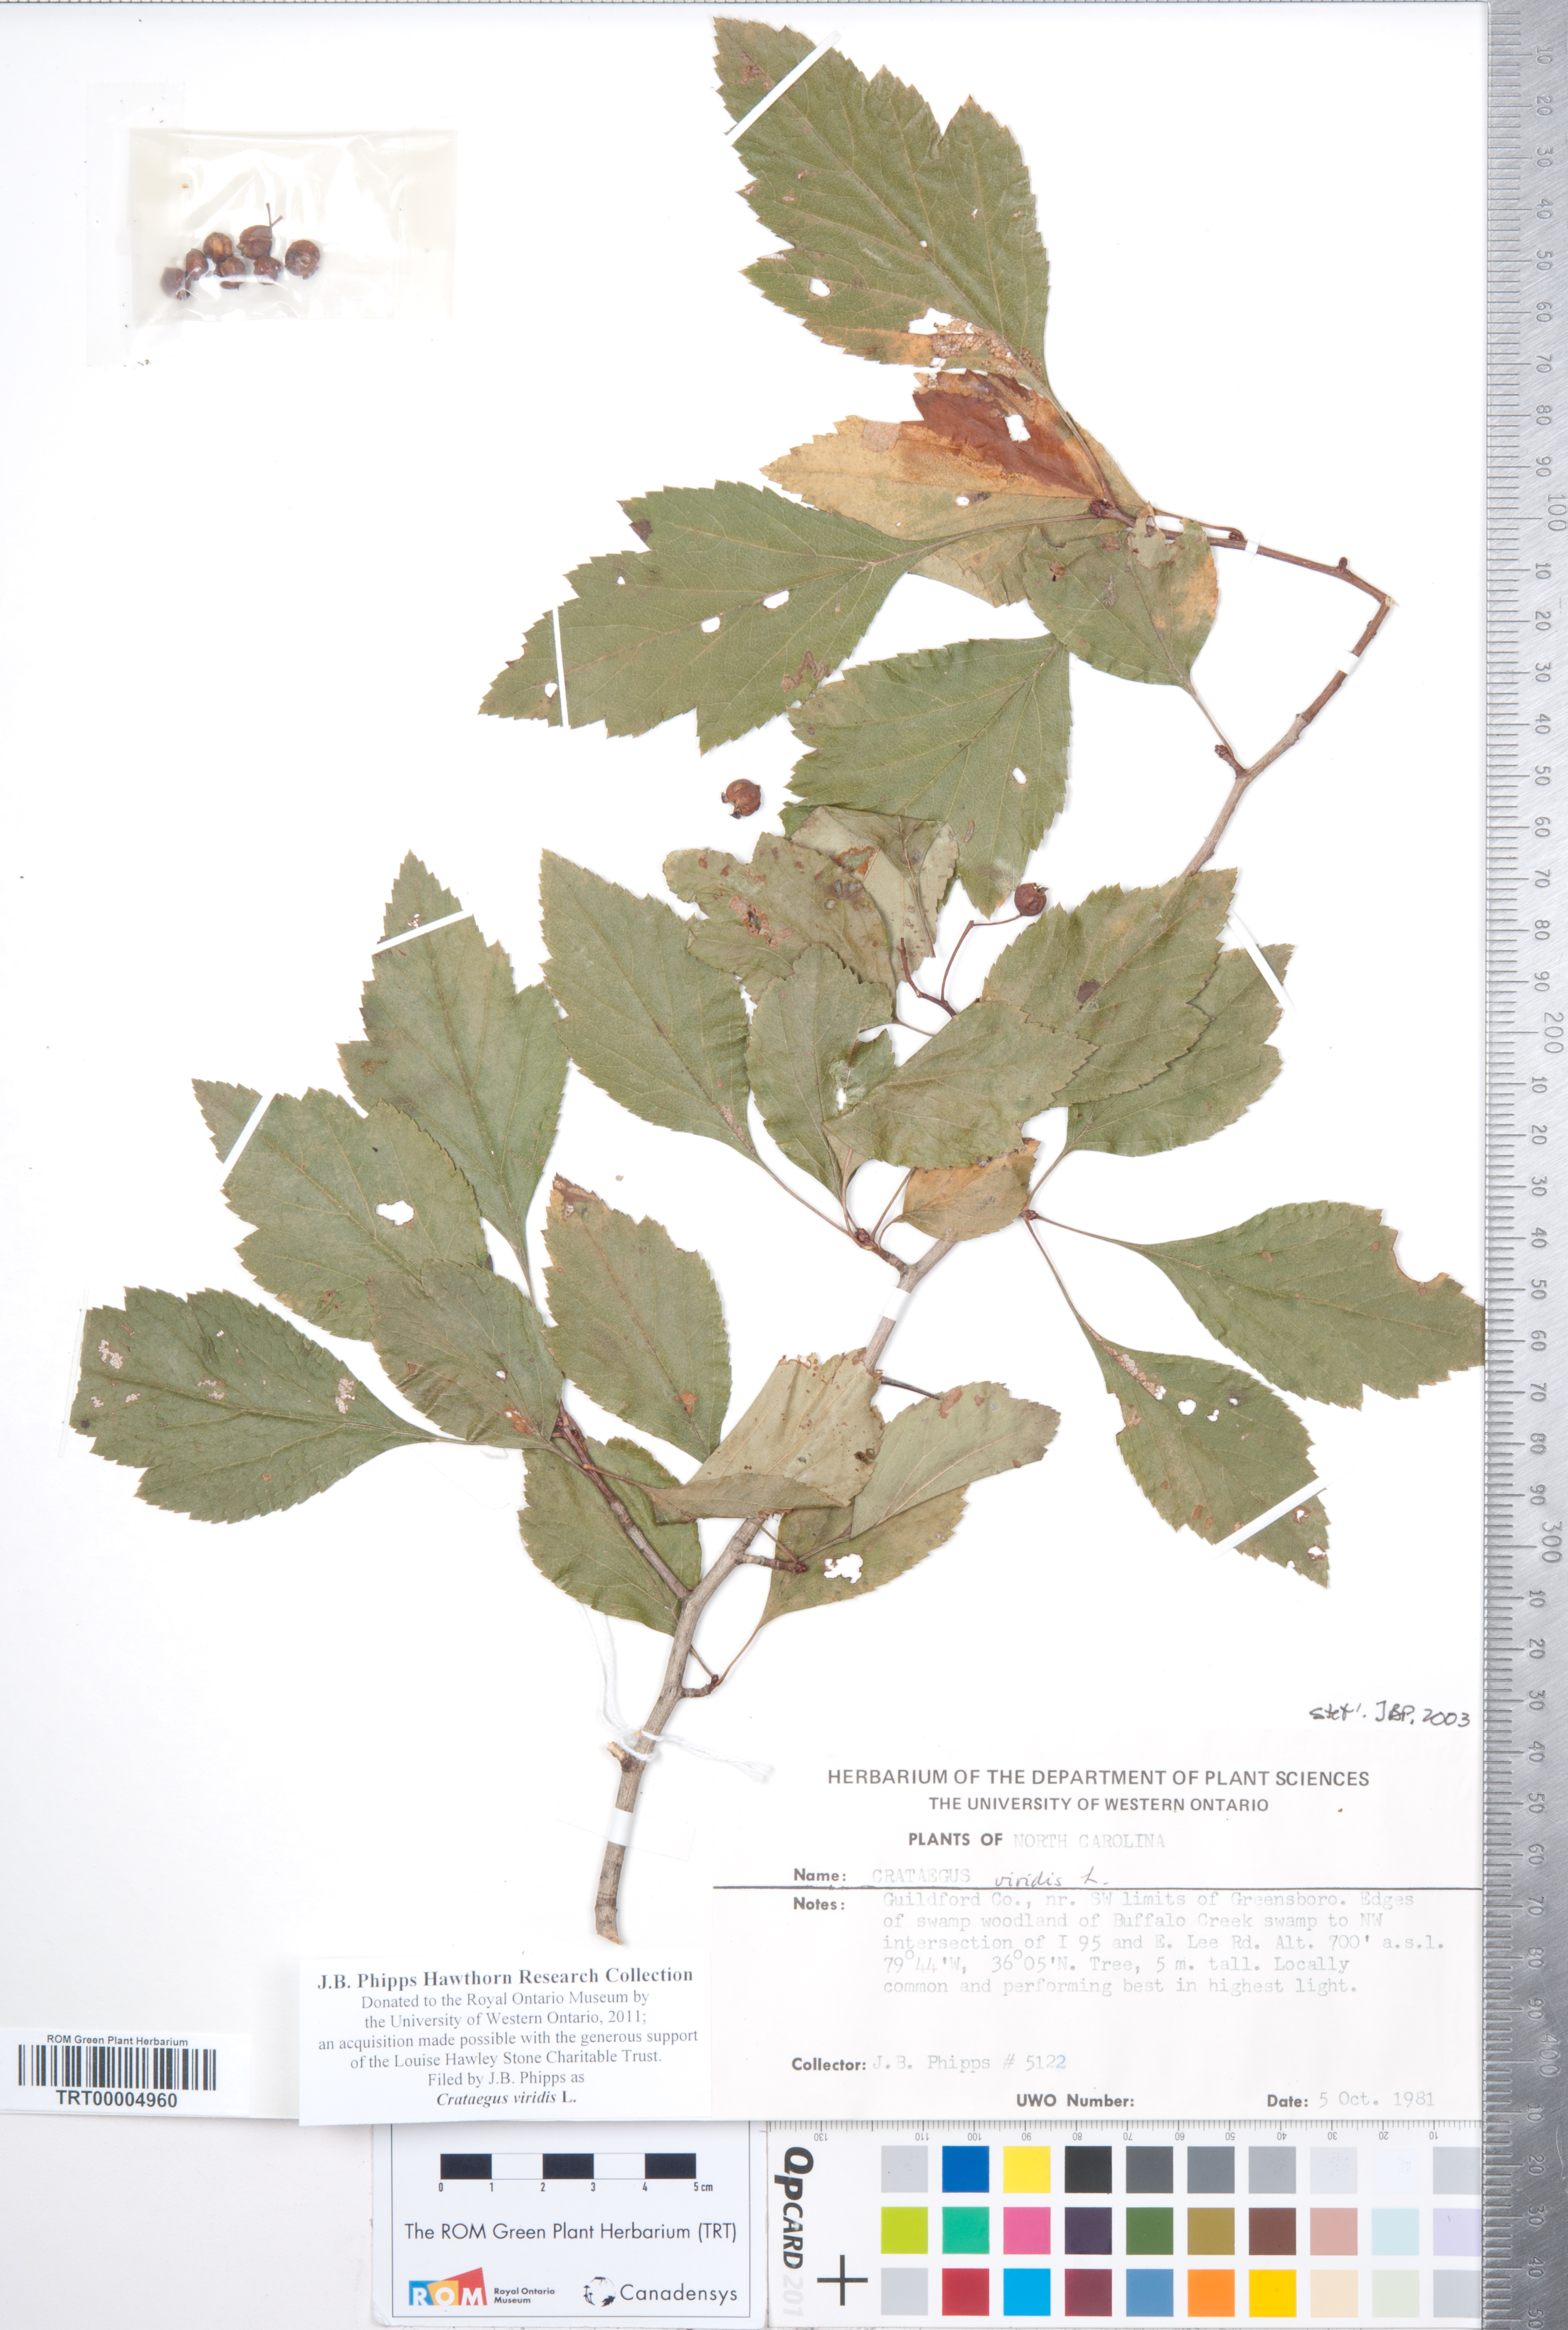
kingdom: Plantae
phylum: Tracheophyta
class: Magnoliopsida
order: Rosales
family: Rosaceae
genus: Crataegus
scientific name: Crataegus viridis
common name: Southernthorn
